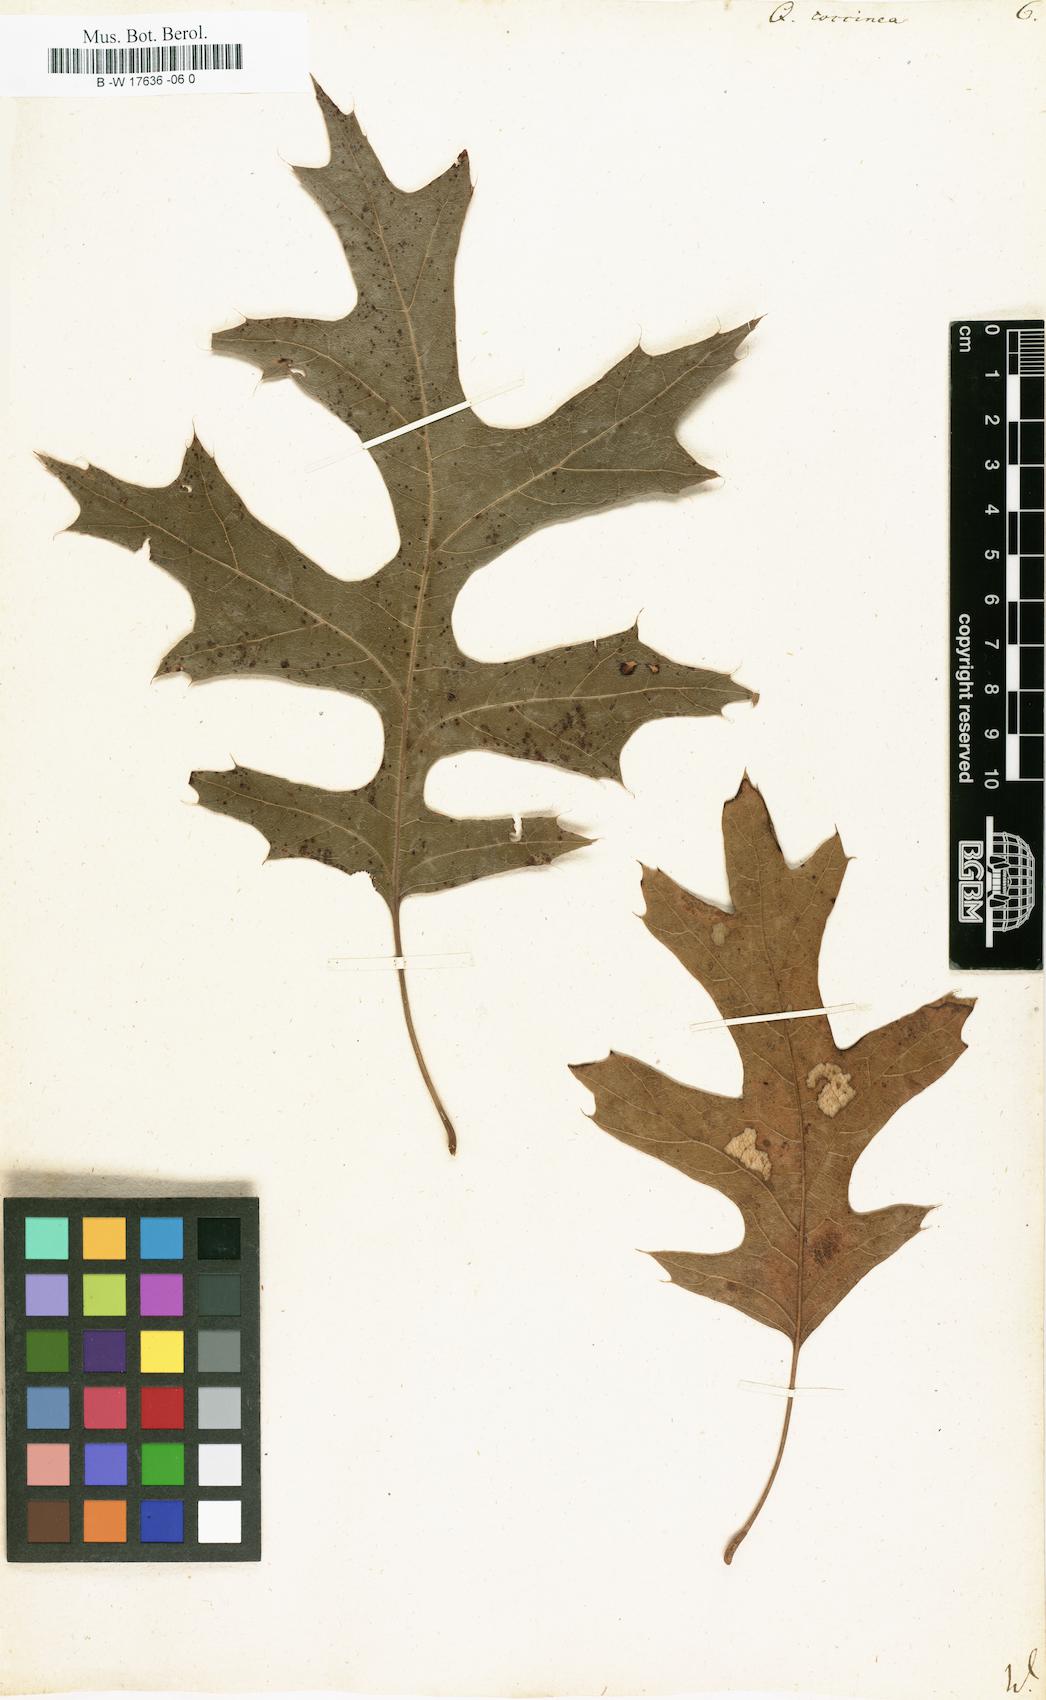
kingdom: Plantae
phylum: Tracheophyta
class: Magnoliopsida
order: Fagales
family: Fagaceae
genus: Quercus
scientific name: Quercus coccinea
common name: Scarlet oak
